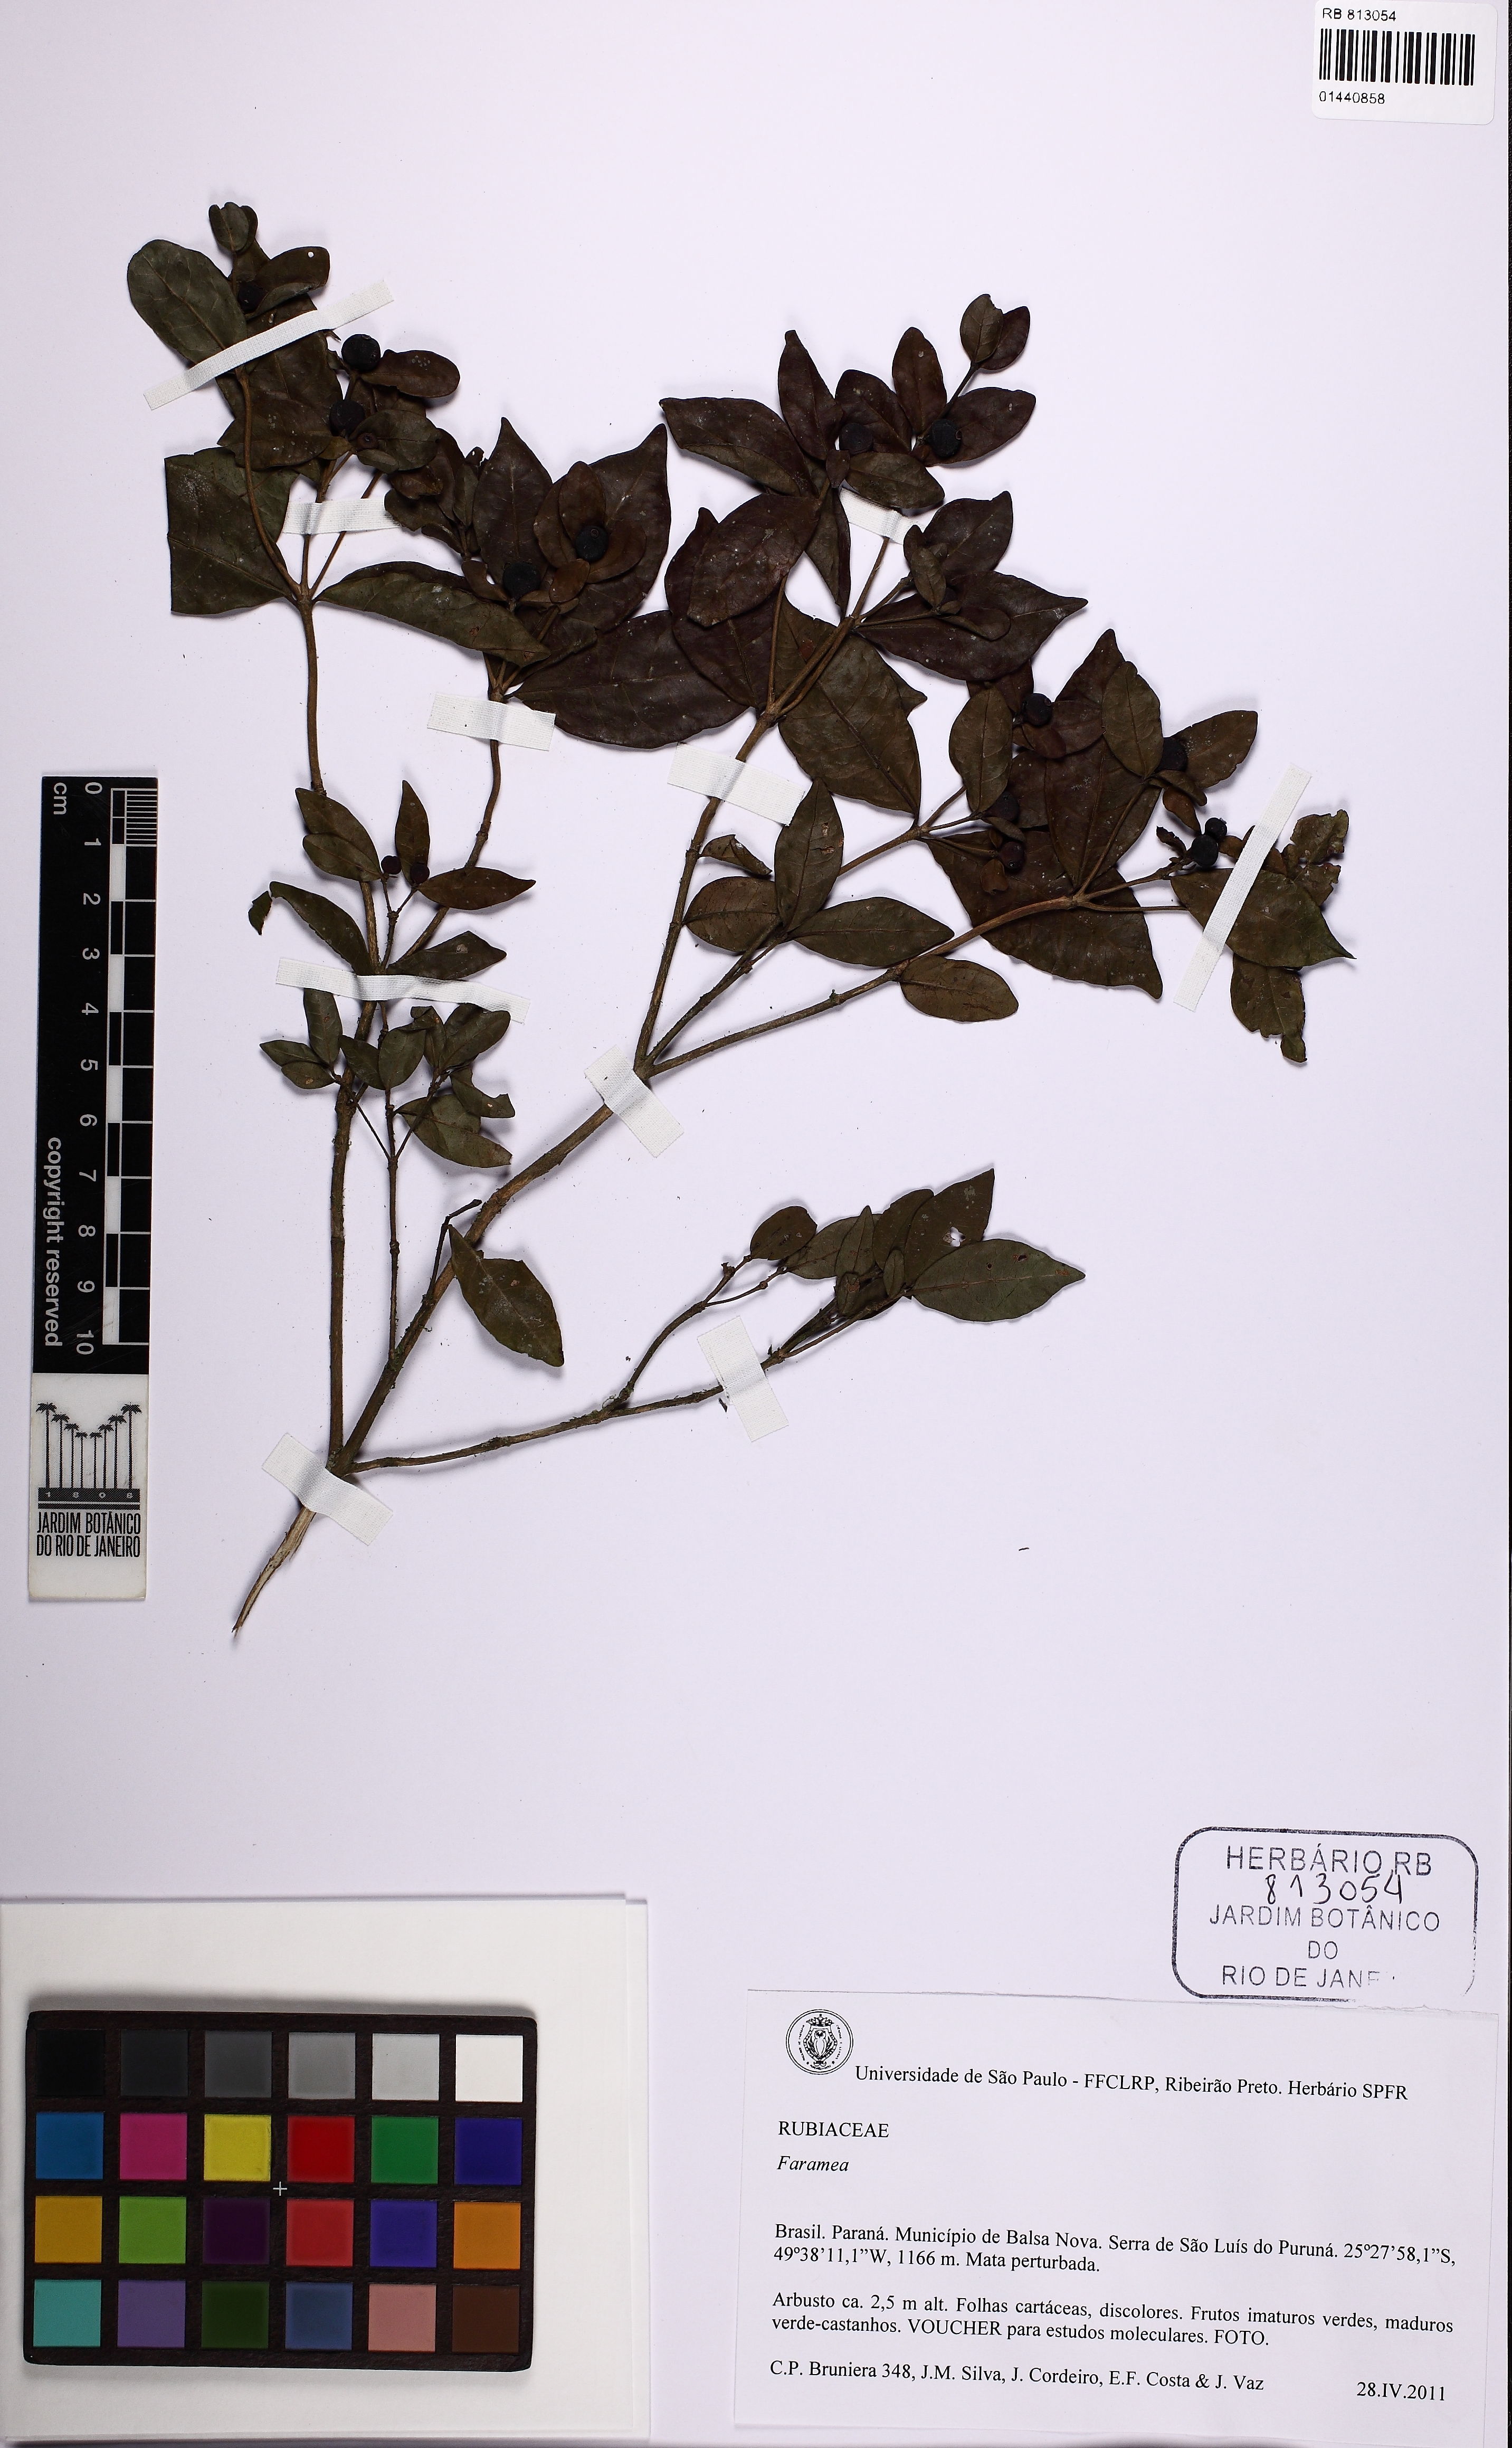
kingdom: Plantae
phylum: Tracheophyta
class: Magnoliopsida
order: Gentianales
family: Rubiaceae
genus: Cordiera
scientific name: Cordiera concolor
